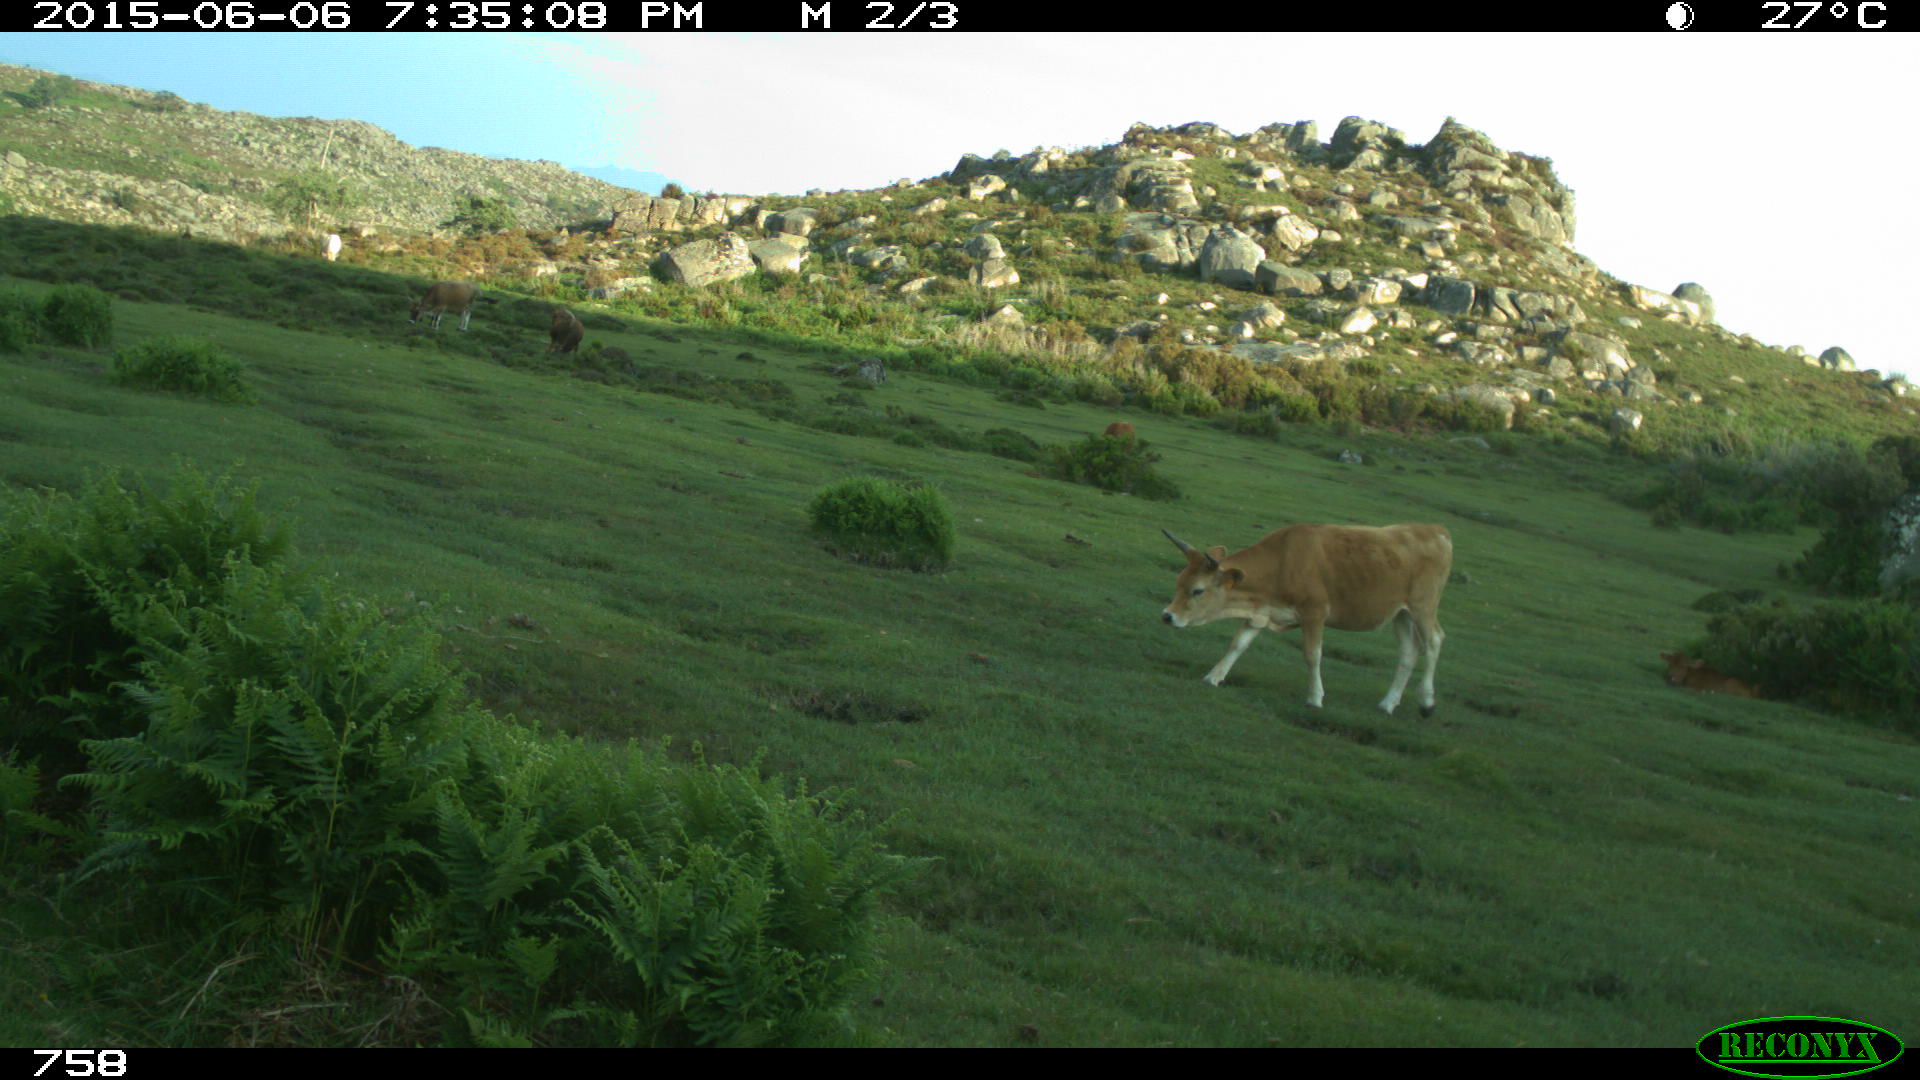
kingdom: Animalia
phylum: Chordata
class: Mammalia
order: Artiodactyla
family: Bovidae
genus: Bos
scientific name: Bos taurus
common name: Domesticated cattle
